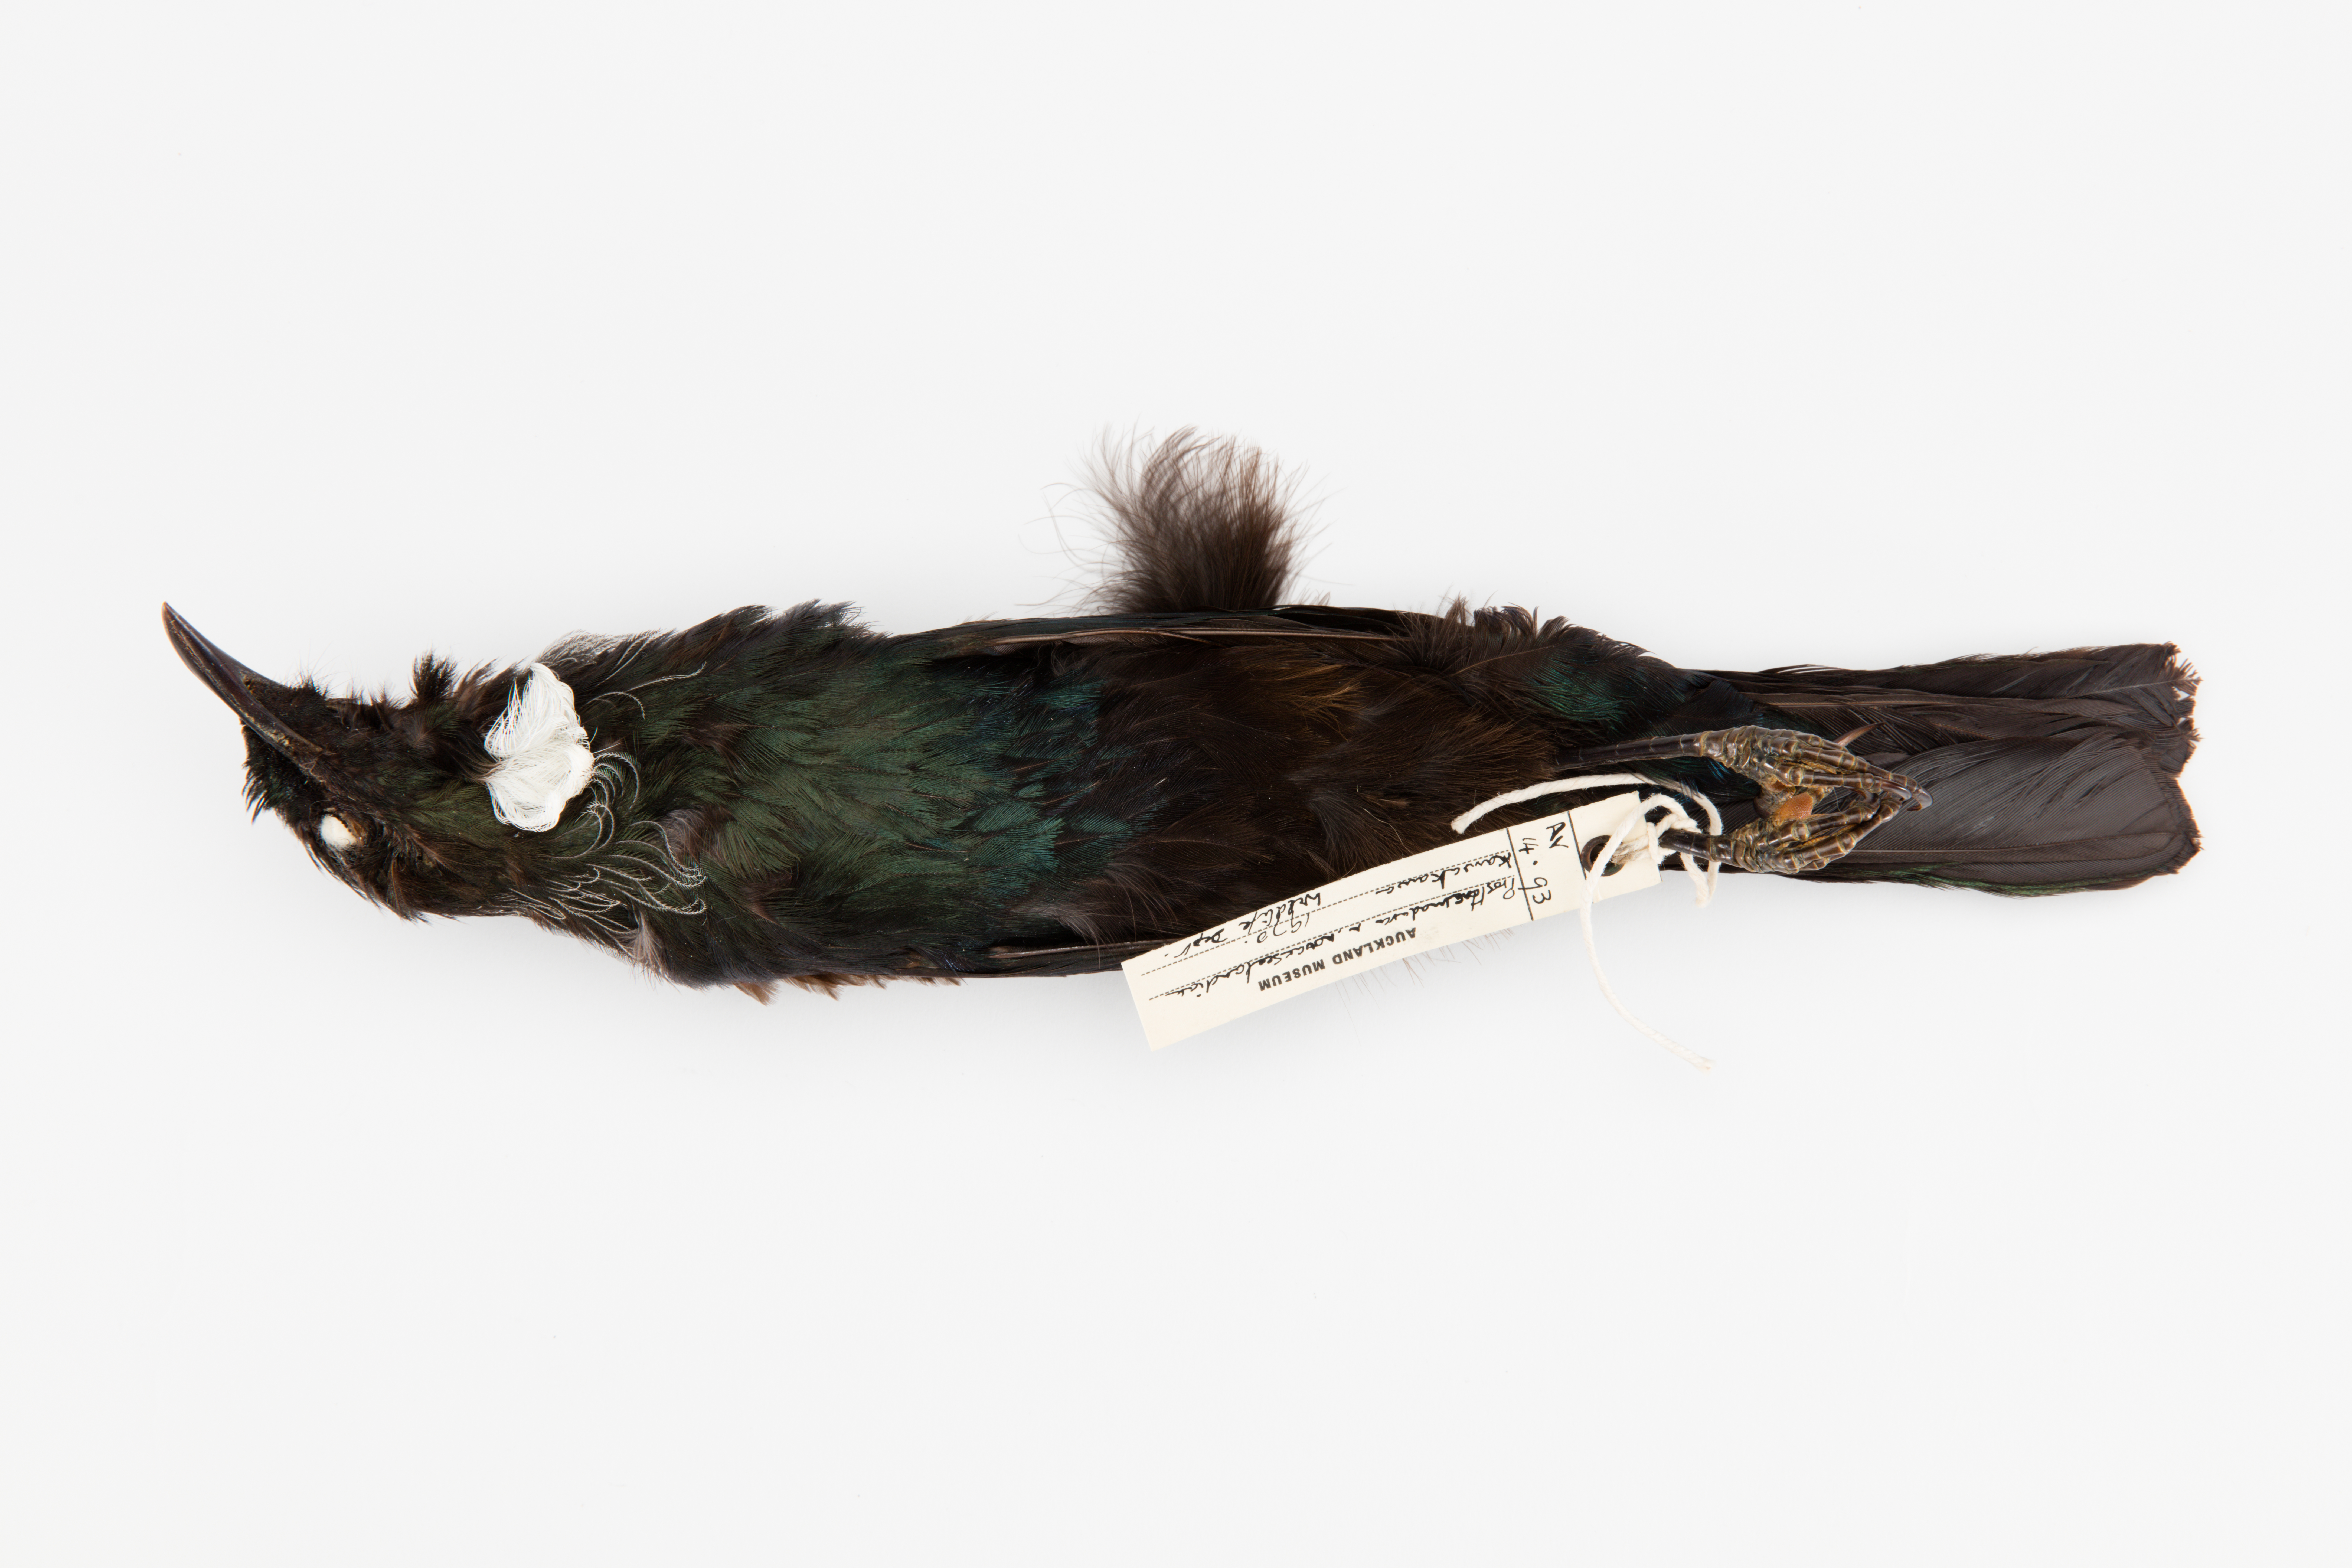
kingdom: Animalia
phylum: Chordata
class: Aves
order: Passeriformes
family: Meliphagidae
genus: Prosthemadera
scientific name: Prosthemadera novaeseelandiae
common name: Tui
